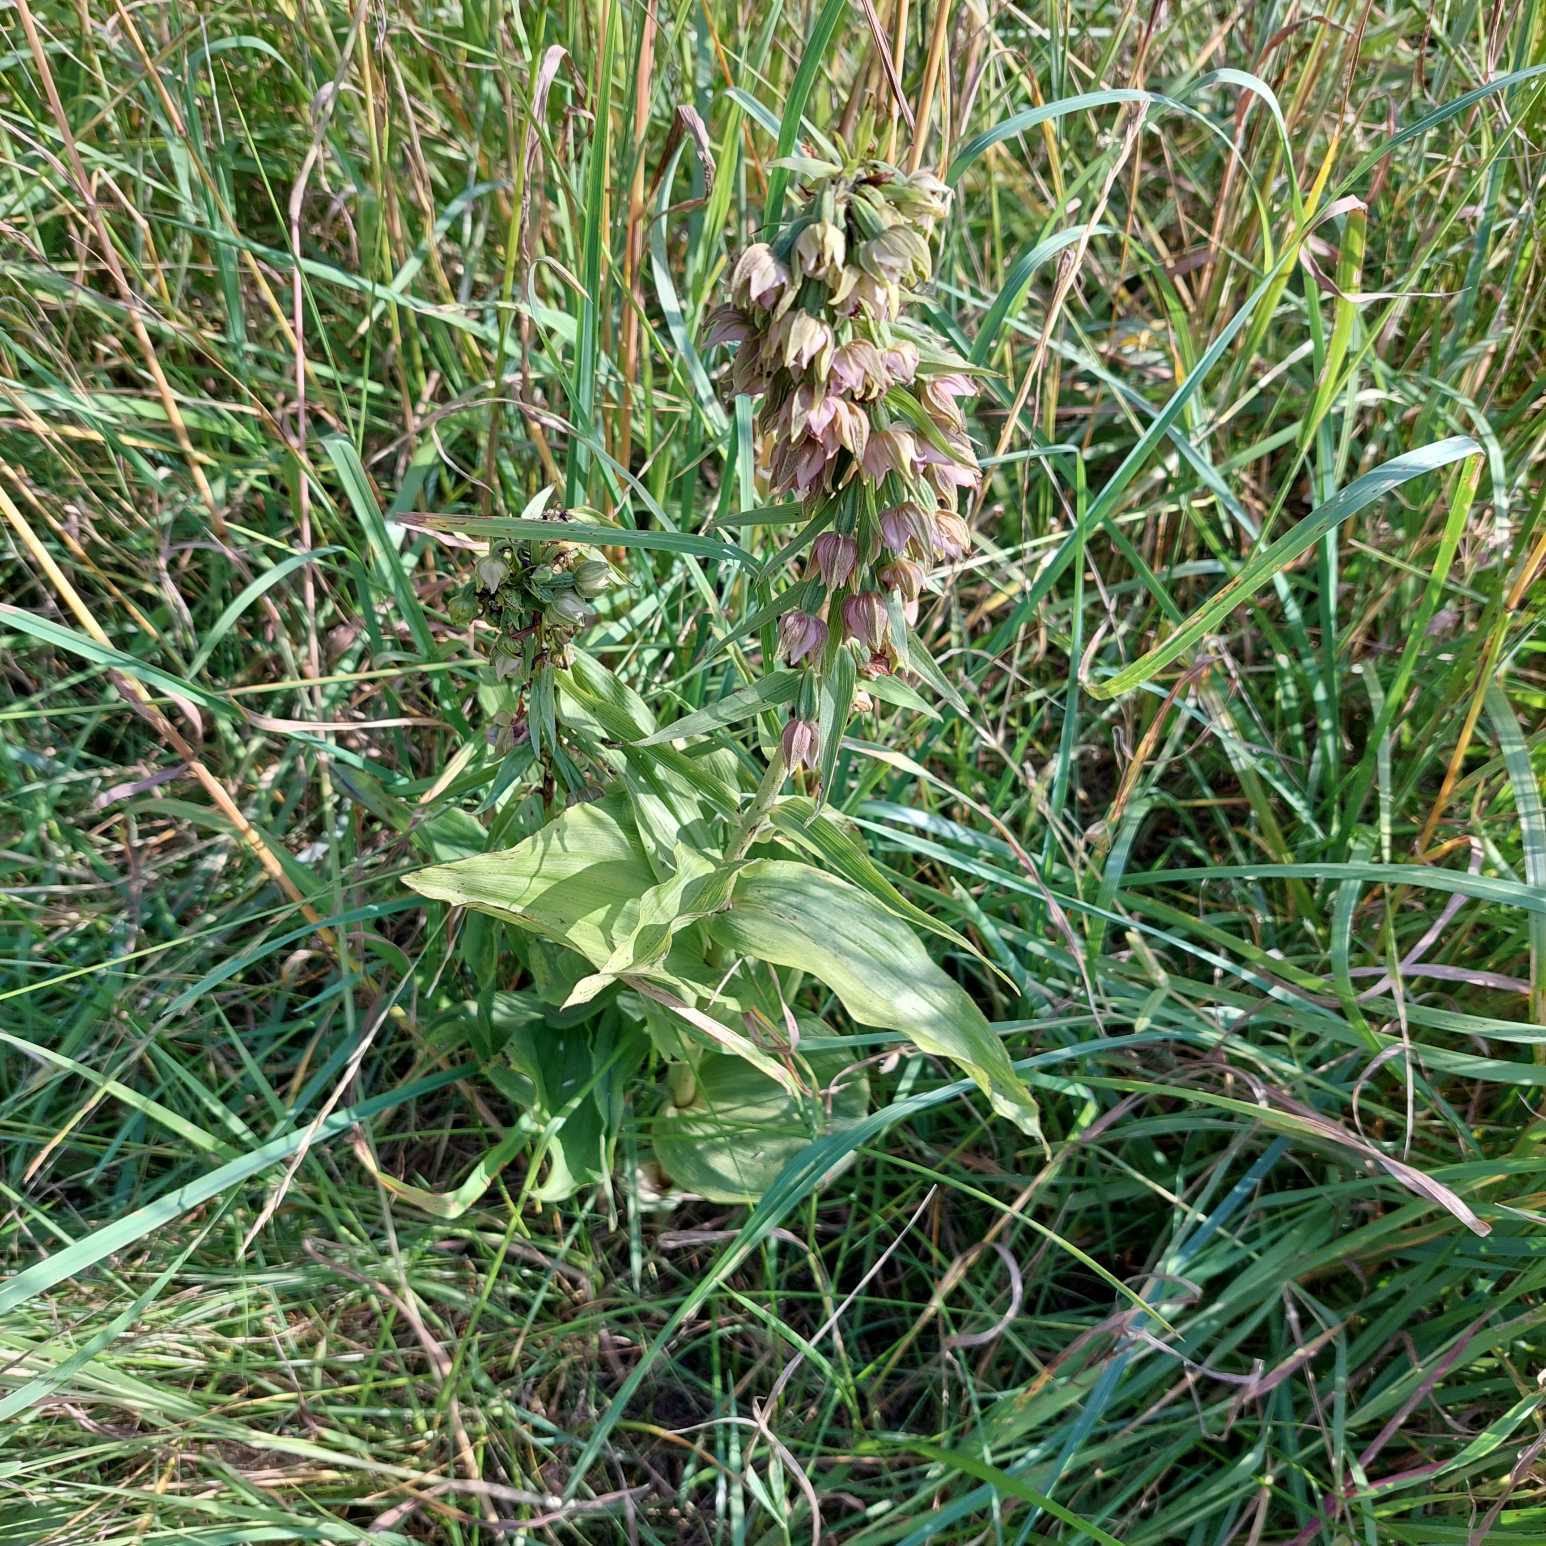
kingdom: Plantae
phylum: Tracheophyta
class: Liliopsida
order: Asparagales
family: Orchidaceae
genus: Epipactis
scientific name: Epipactis helleborine
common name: Skov-hullæbe
